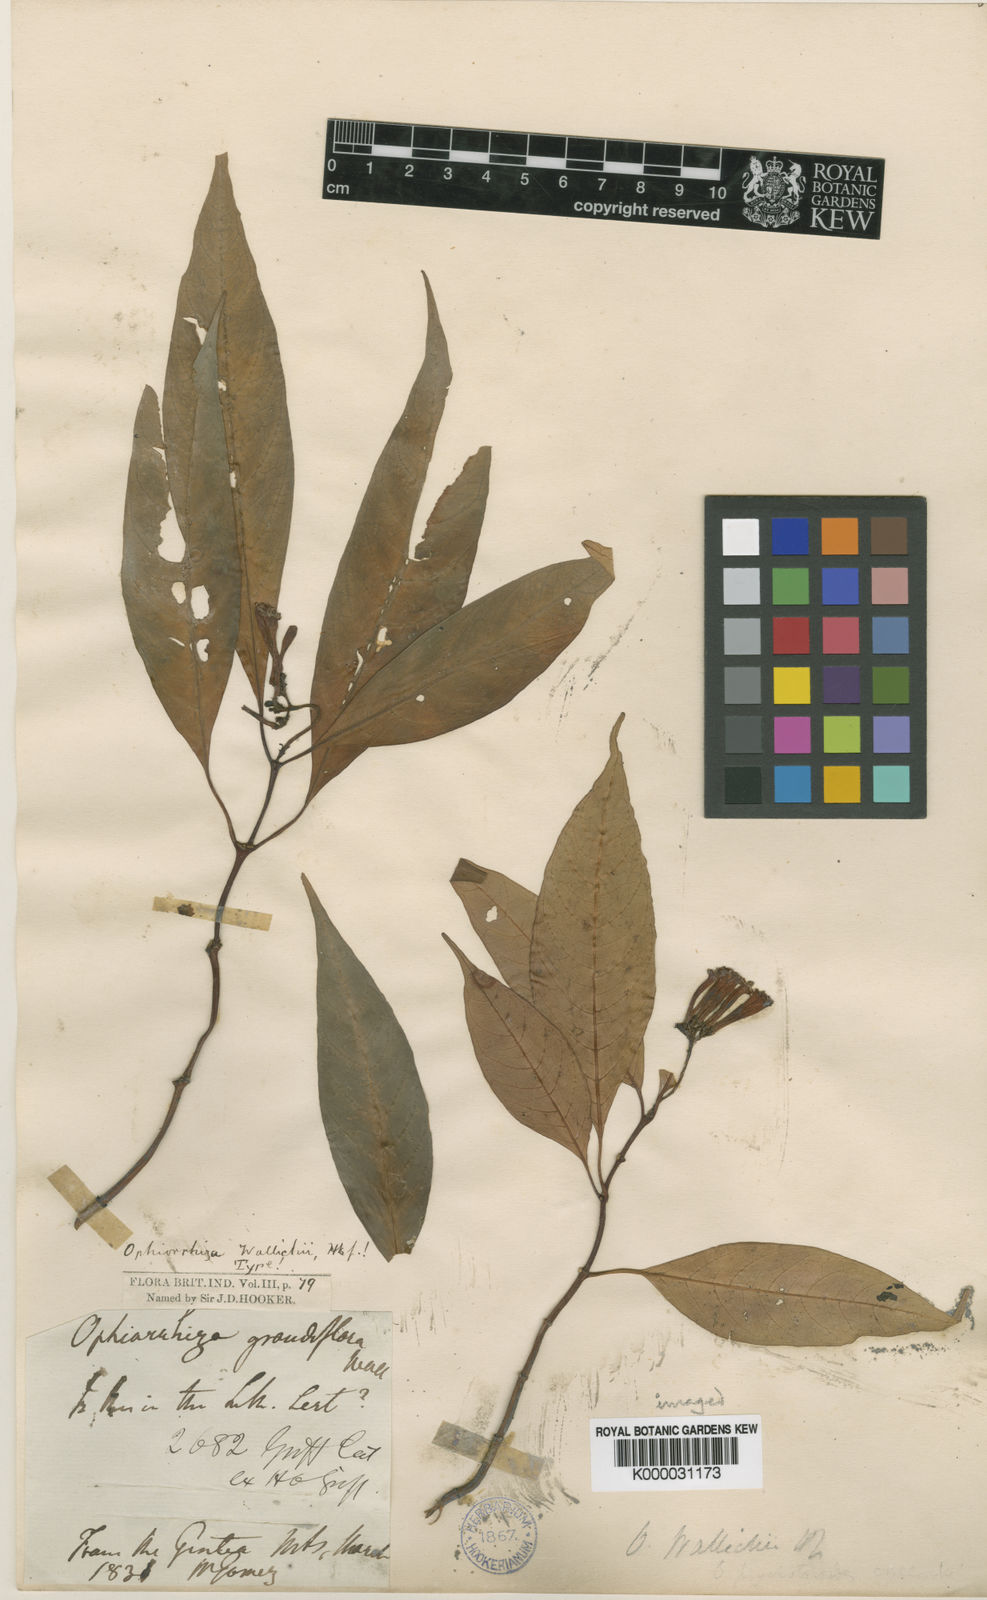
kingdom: Plantae
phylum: Tracheophyta
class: Magnoliopsida
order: Gentianales
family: Rubiaceae
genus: Ophiorrhiza
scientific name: Ophiorrhiza
